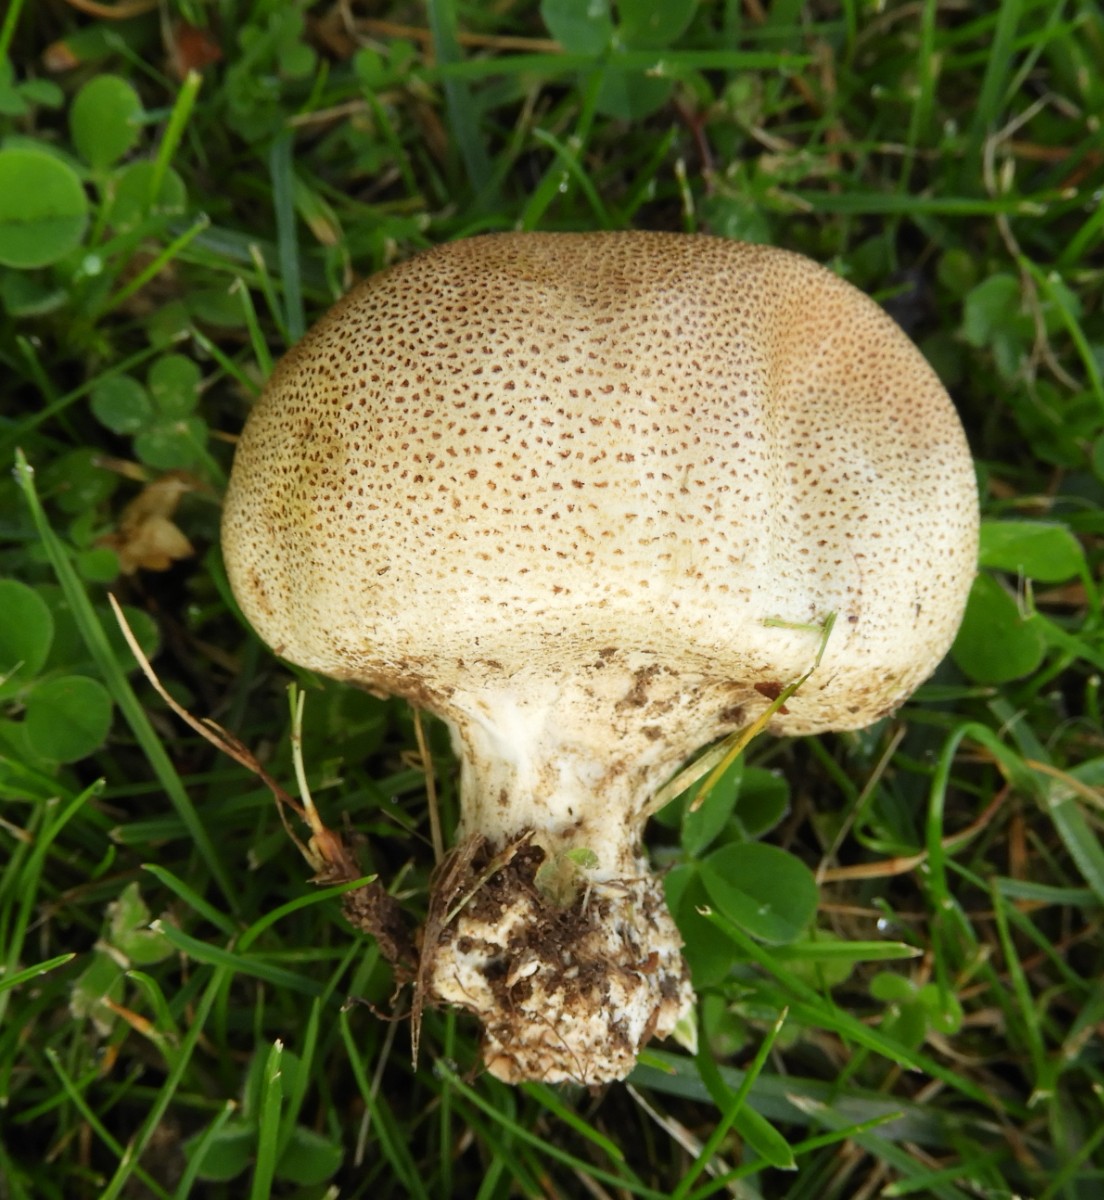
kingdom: Fungi
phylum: Basidiomycota
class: Agaricomycetes
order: Boletales
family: Sclerodermataceae
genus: Scleroderma
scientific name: Scleroderma verrucosum
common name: stilket bruskbold
